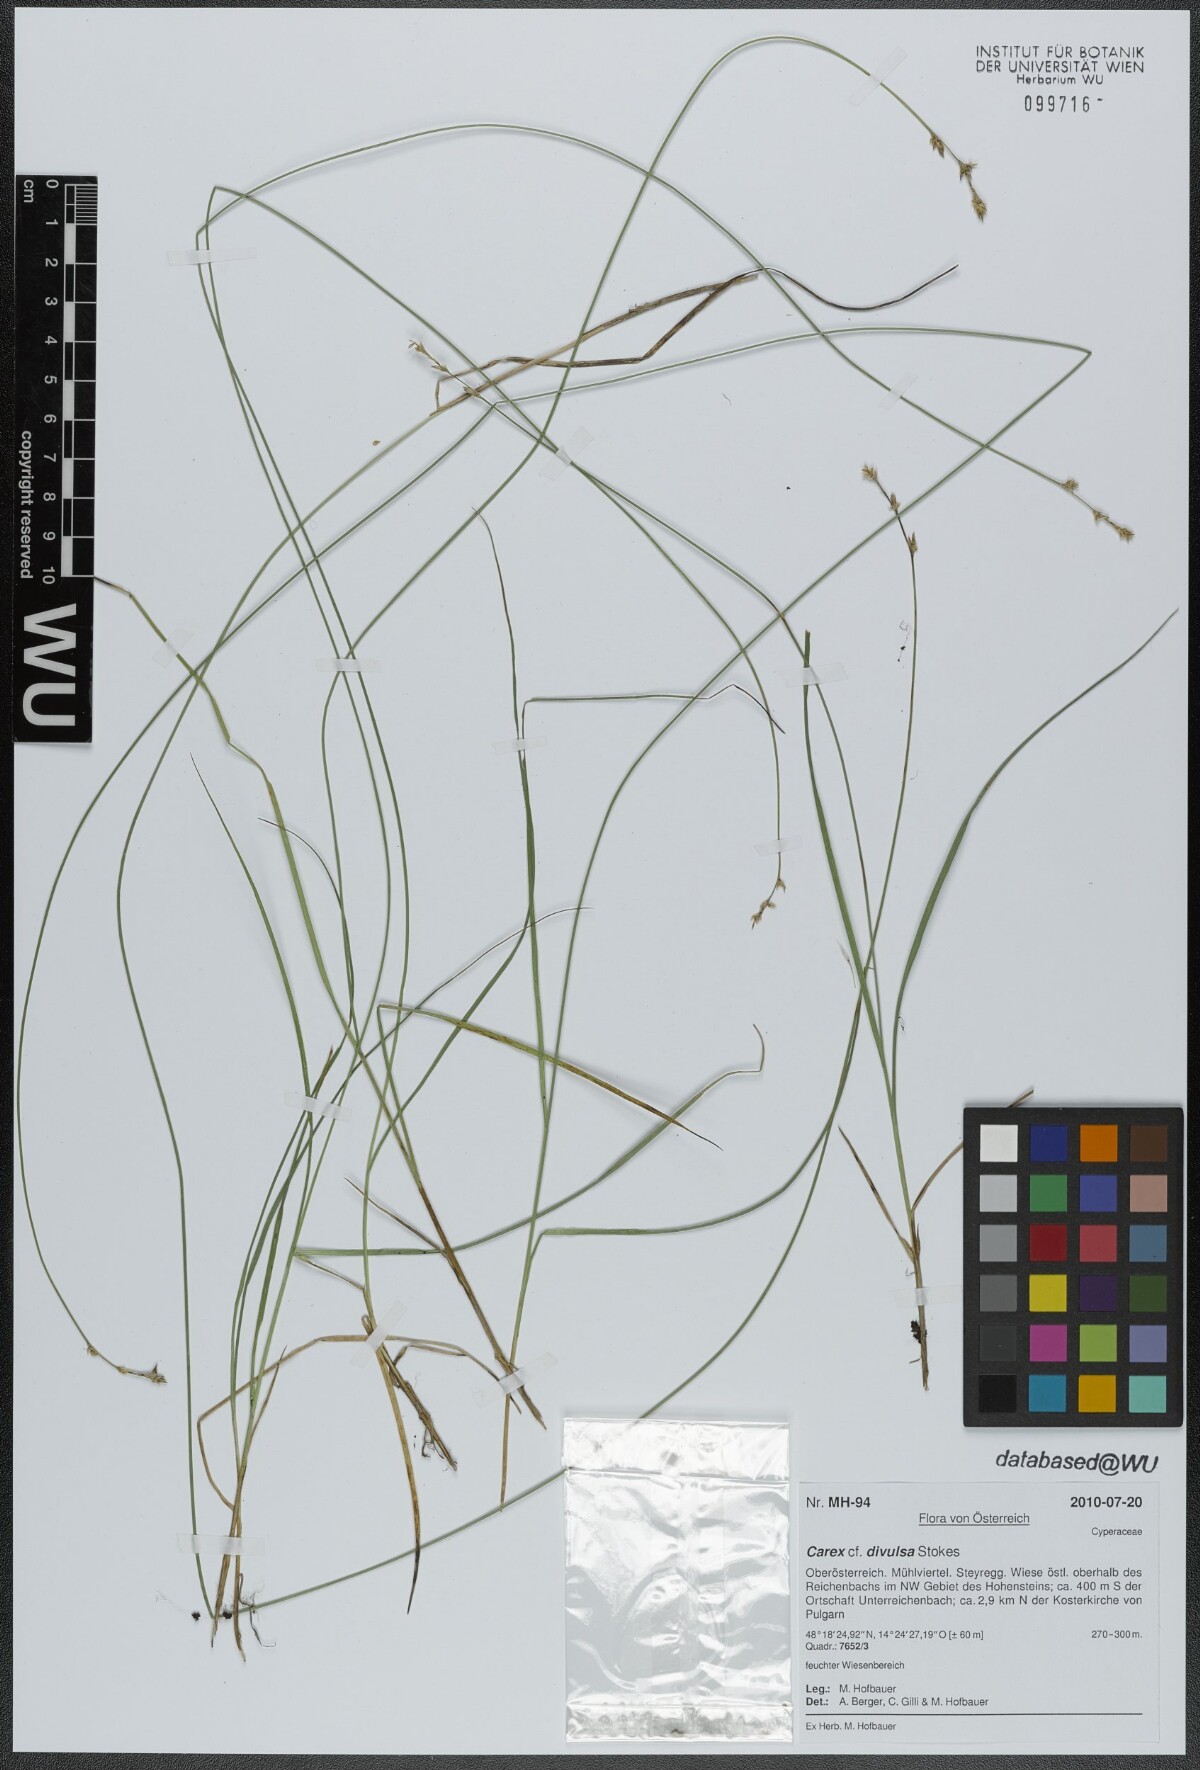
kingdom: Plantae
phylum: Tracheophyta
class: Liliopsida
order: Poales
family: Cyperaceae
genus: Carex
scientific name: Carex divulsa
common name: Grassland sedge
